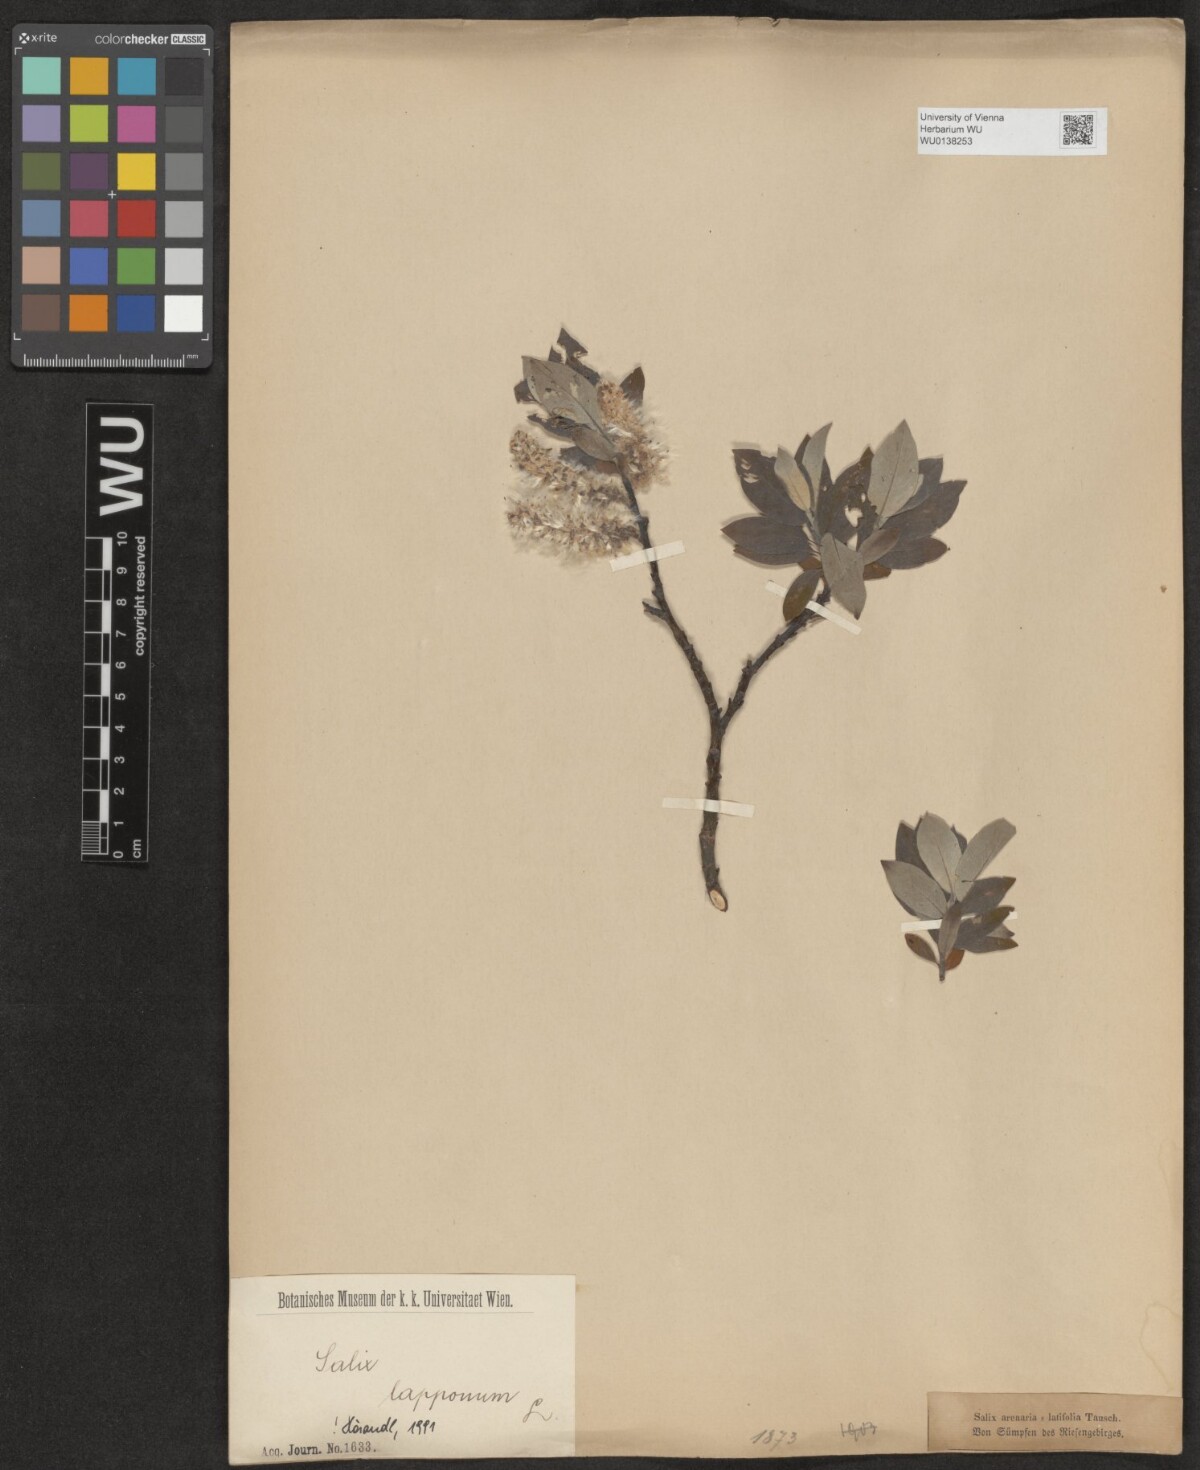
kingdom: Plantae
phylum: Tracheophyta
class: Magnoliopsida
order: Malpighiales
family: Salicaceae
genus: Salix
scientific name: Salix lapponum
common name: Downy willow
